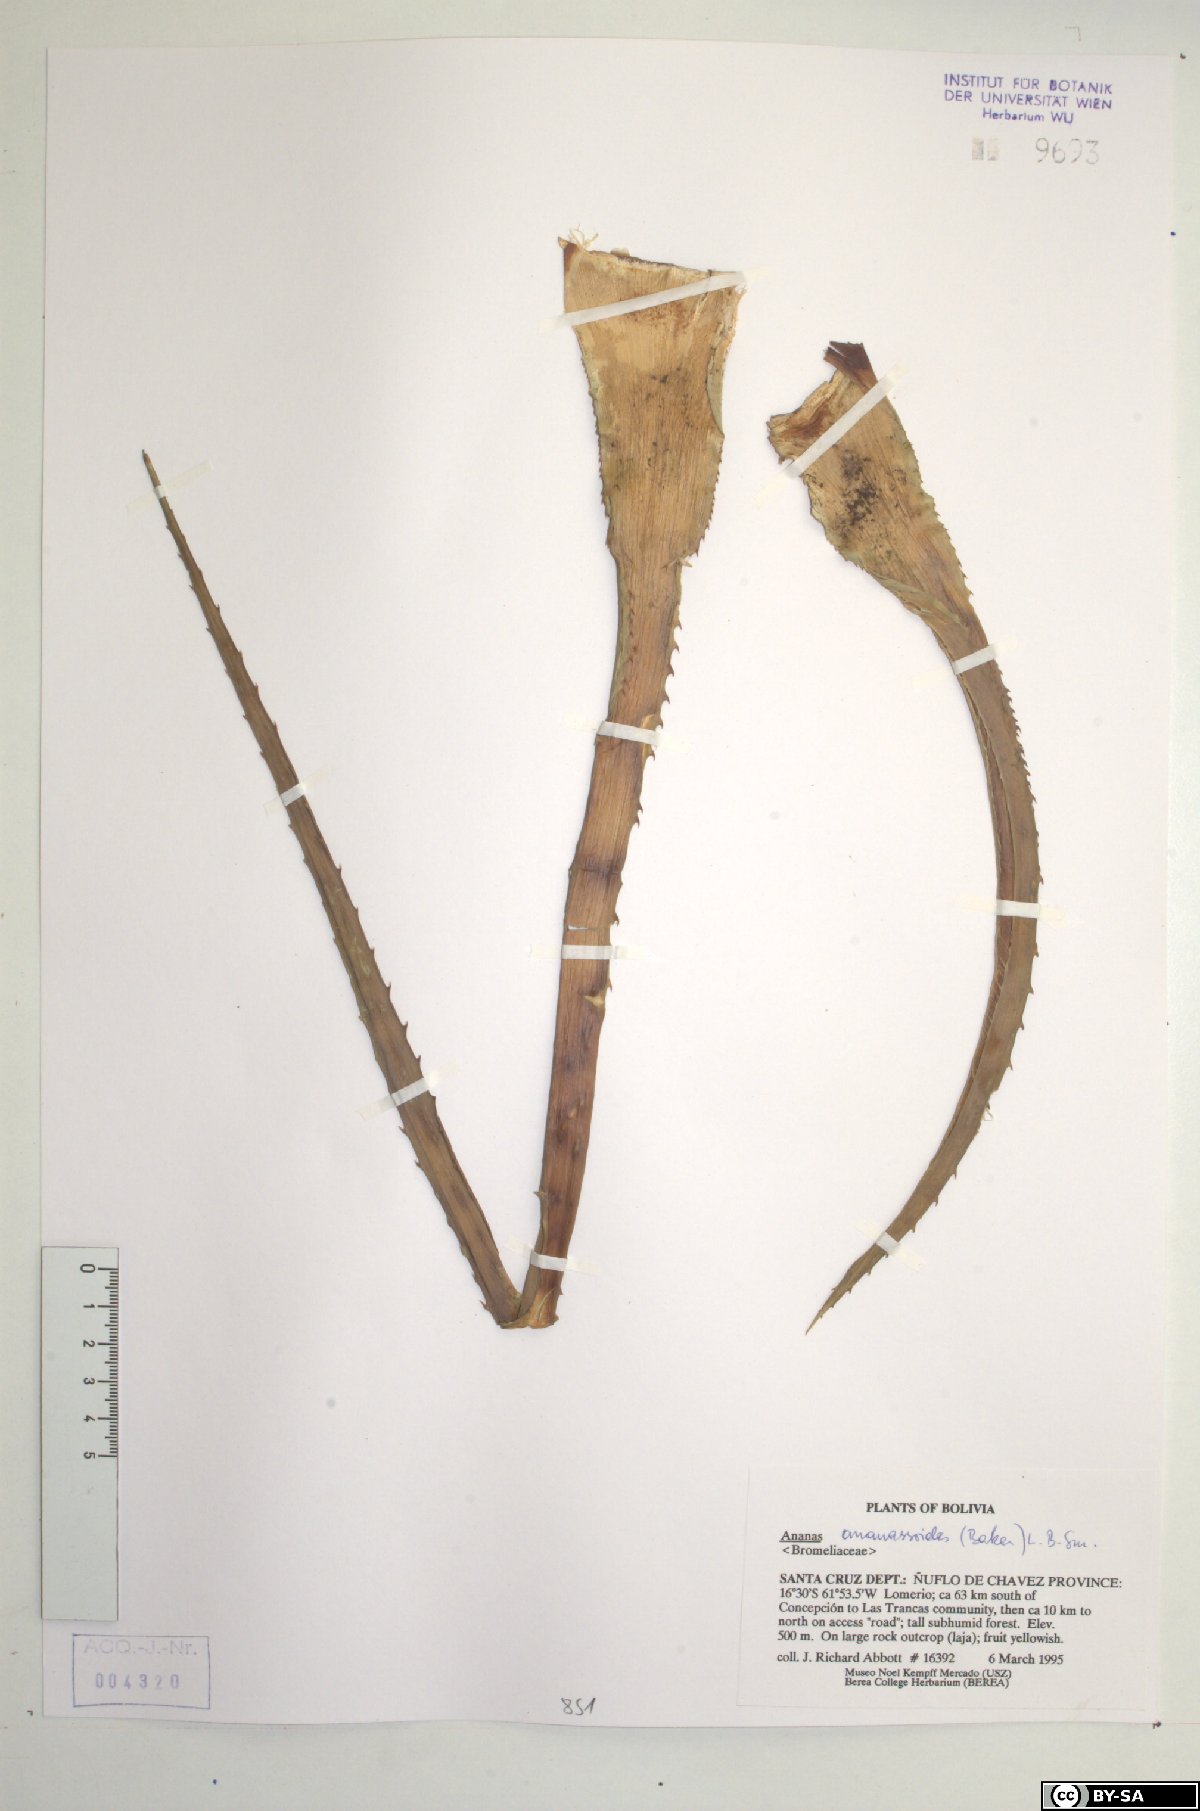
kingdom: Plantae
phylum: Tracheophyta
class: Liliopsida
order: Poales
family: Bromeliaceae
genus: Ananas
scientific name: Ananas comosus
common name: Pineapple
